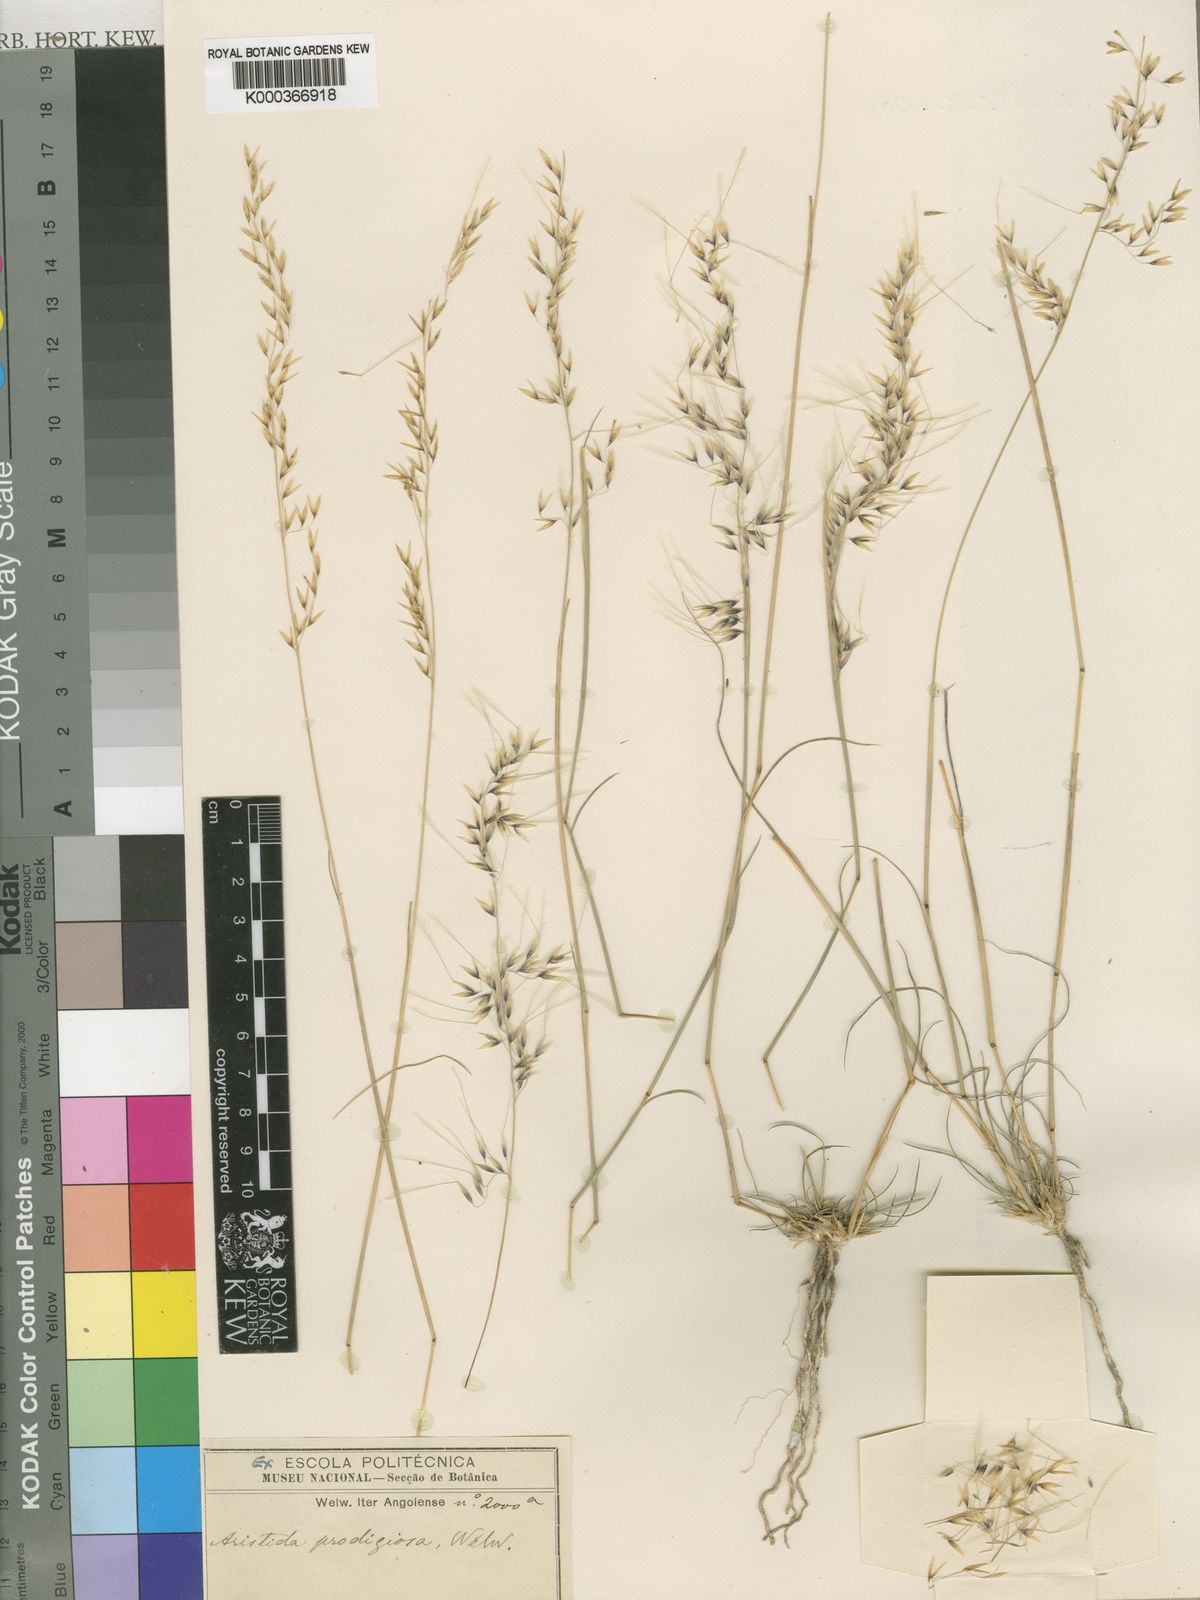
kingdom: Plantae
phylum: Tracheophyta
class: Liliopsida
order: Poales
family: Poaceae
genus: Stipagrostis
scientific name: Stipagrostis prodigiosa
